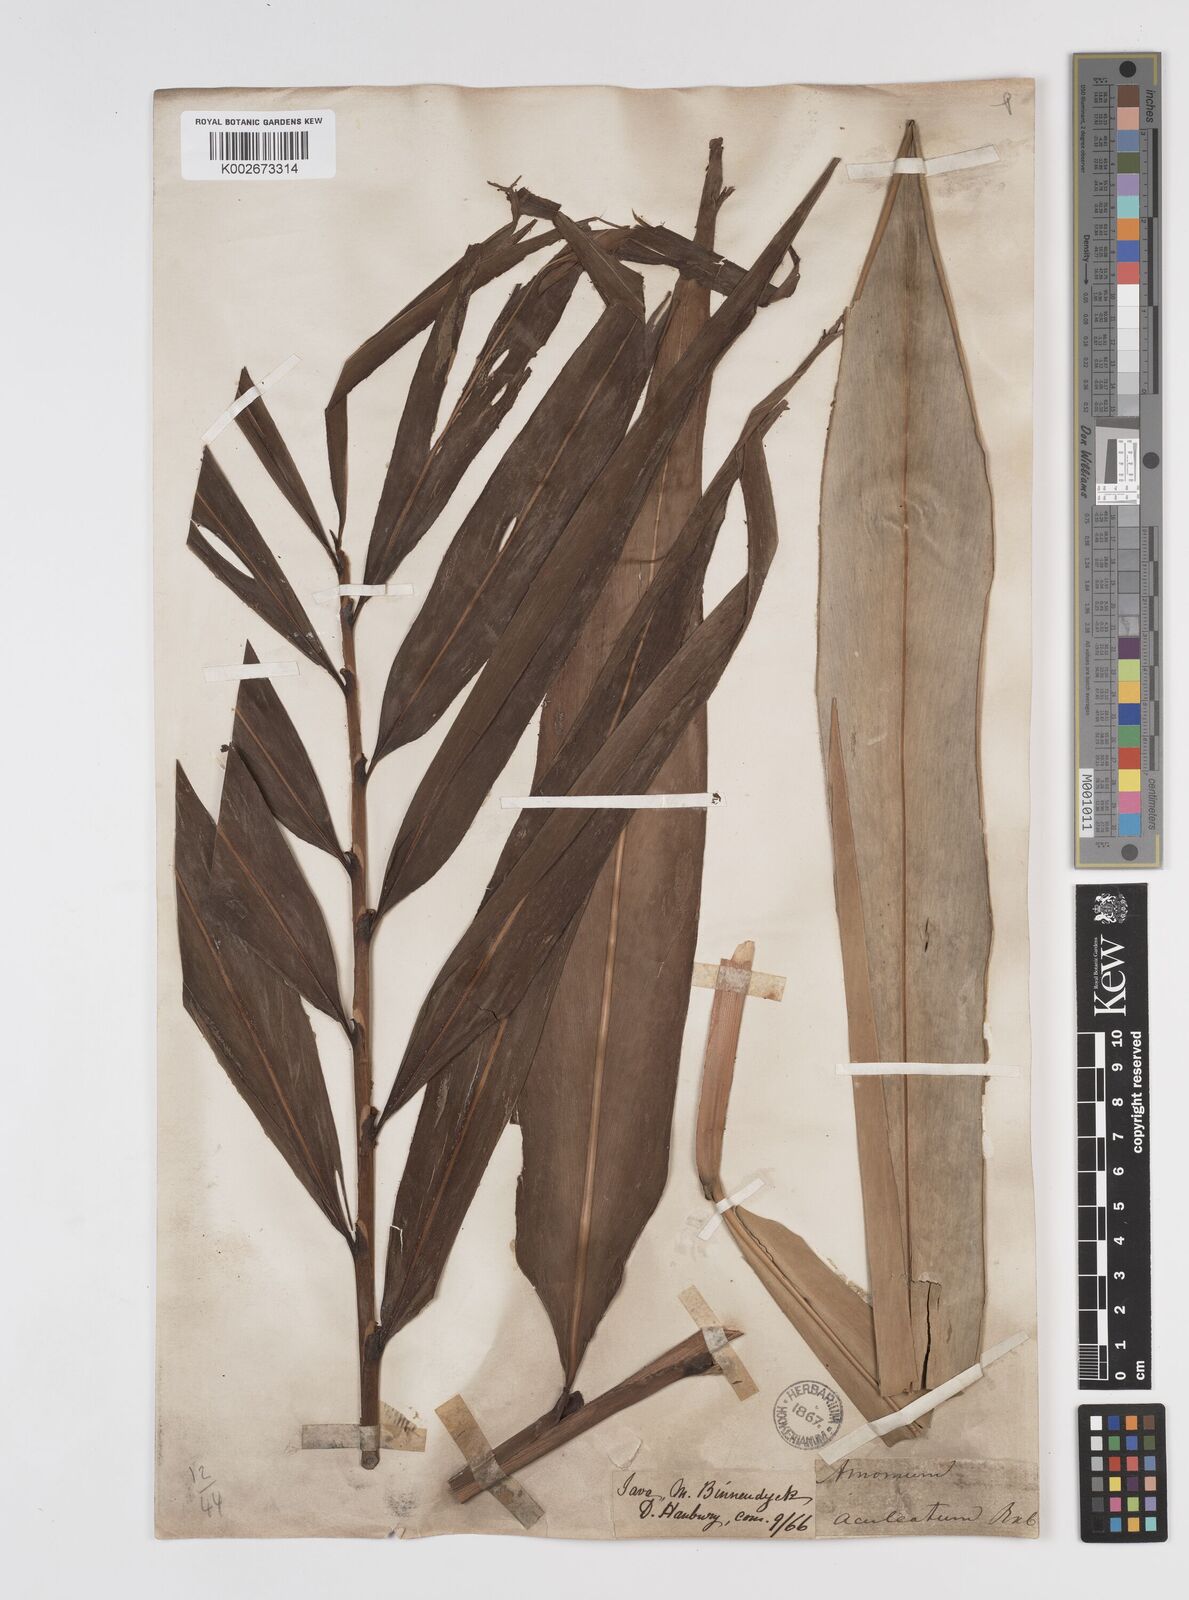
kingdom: Plantae
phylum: Tracheophyta
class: Liliopsida
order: Zingiberales
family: Zingiberaceae
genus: Meistera
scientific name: Meistera aculeata
